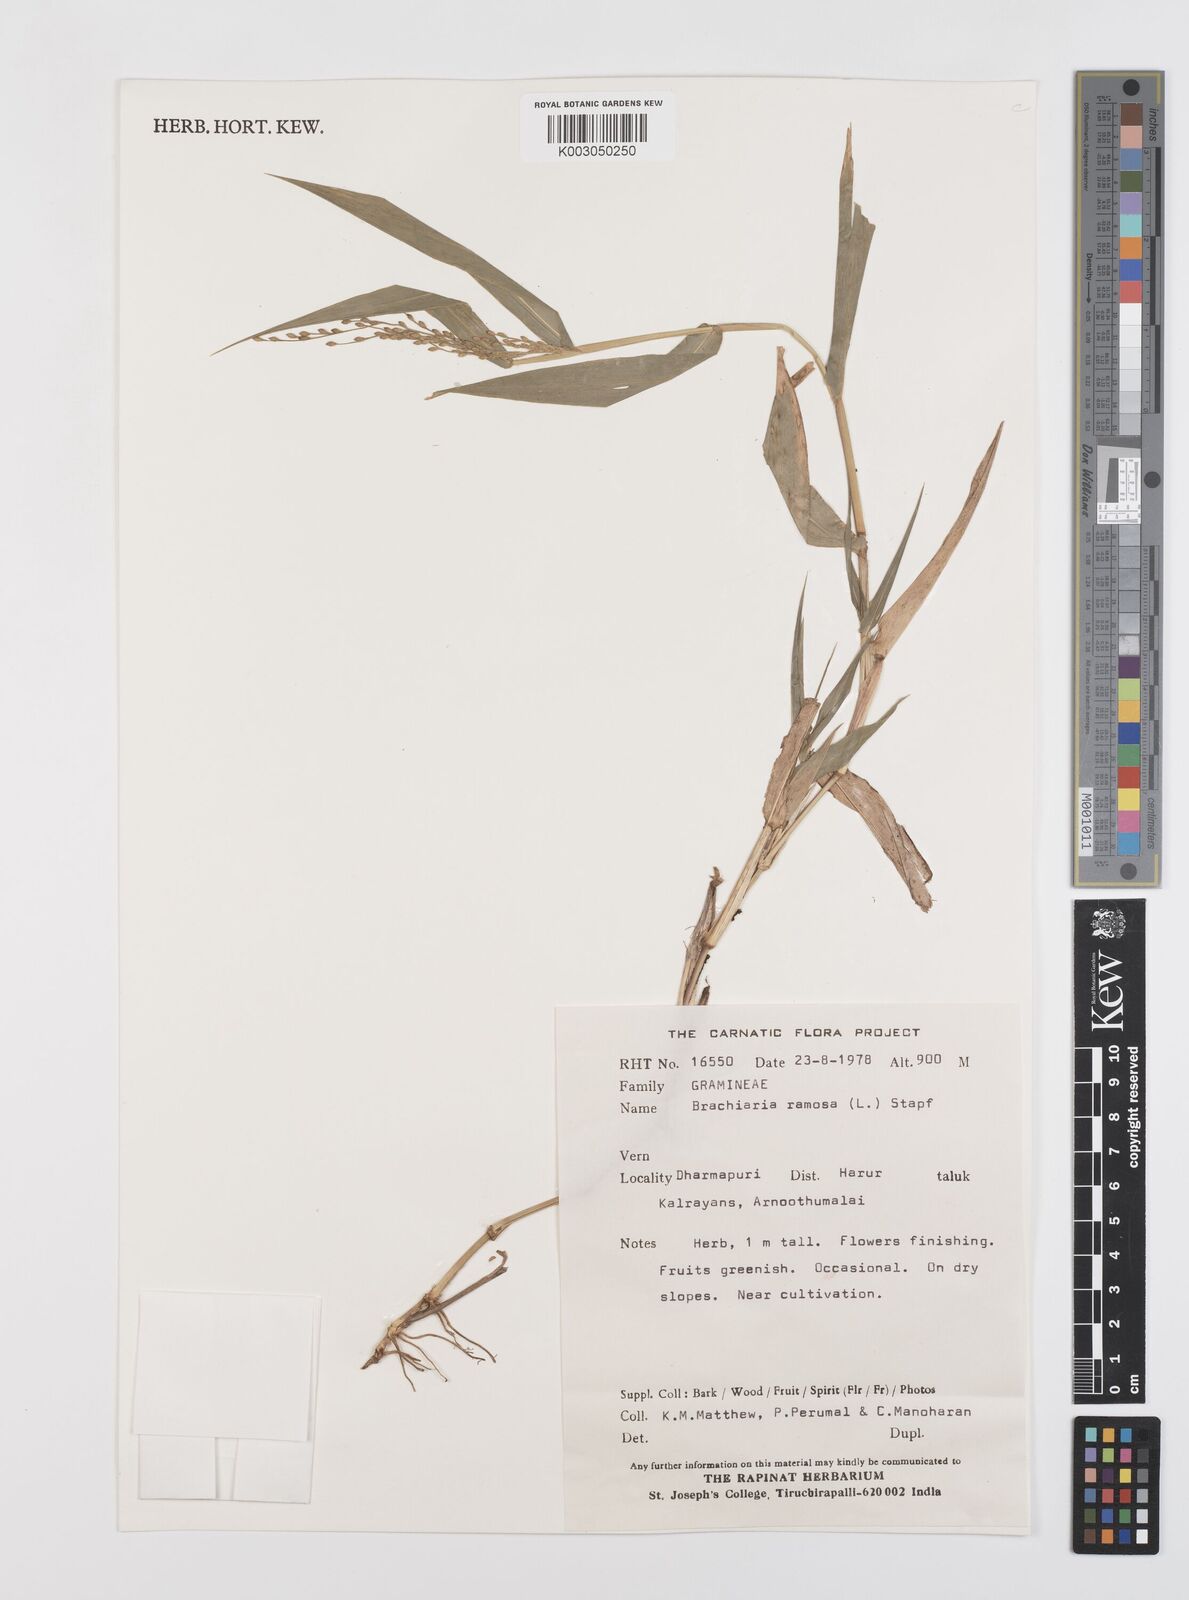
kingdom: Plantae
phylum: Tracheophyta
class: Liliopsida
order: Poales
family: Poaceae
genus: Urochloa
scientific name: Urochloa ramosa
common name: Browntop millet
